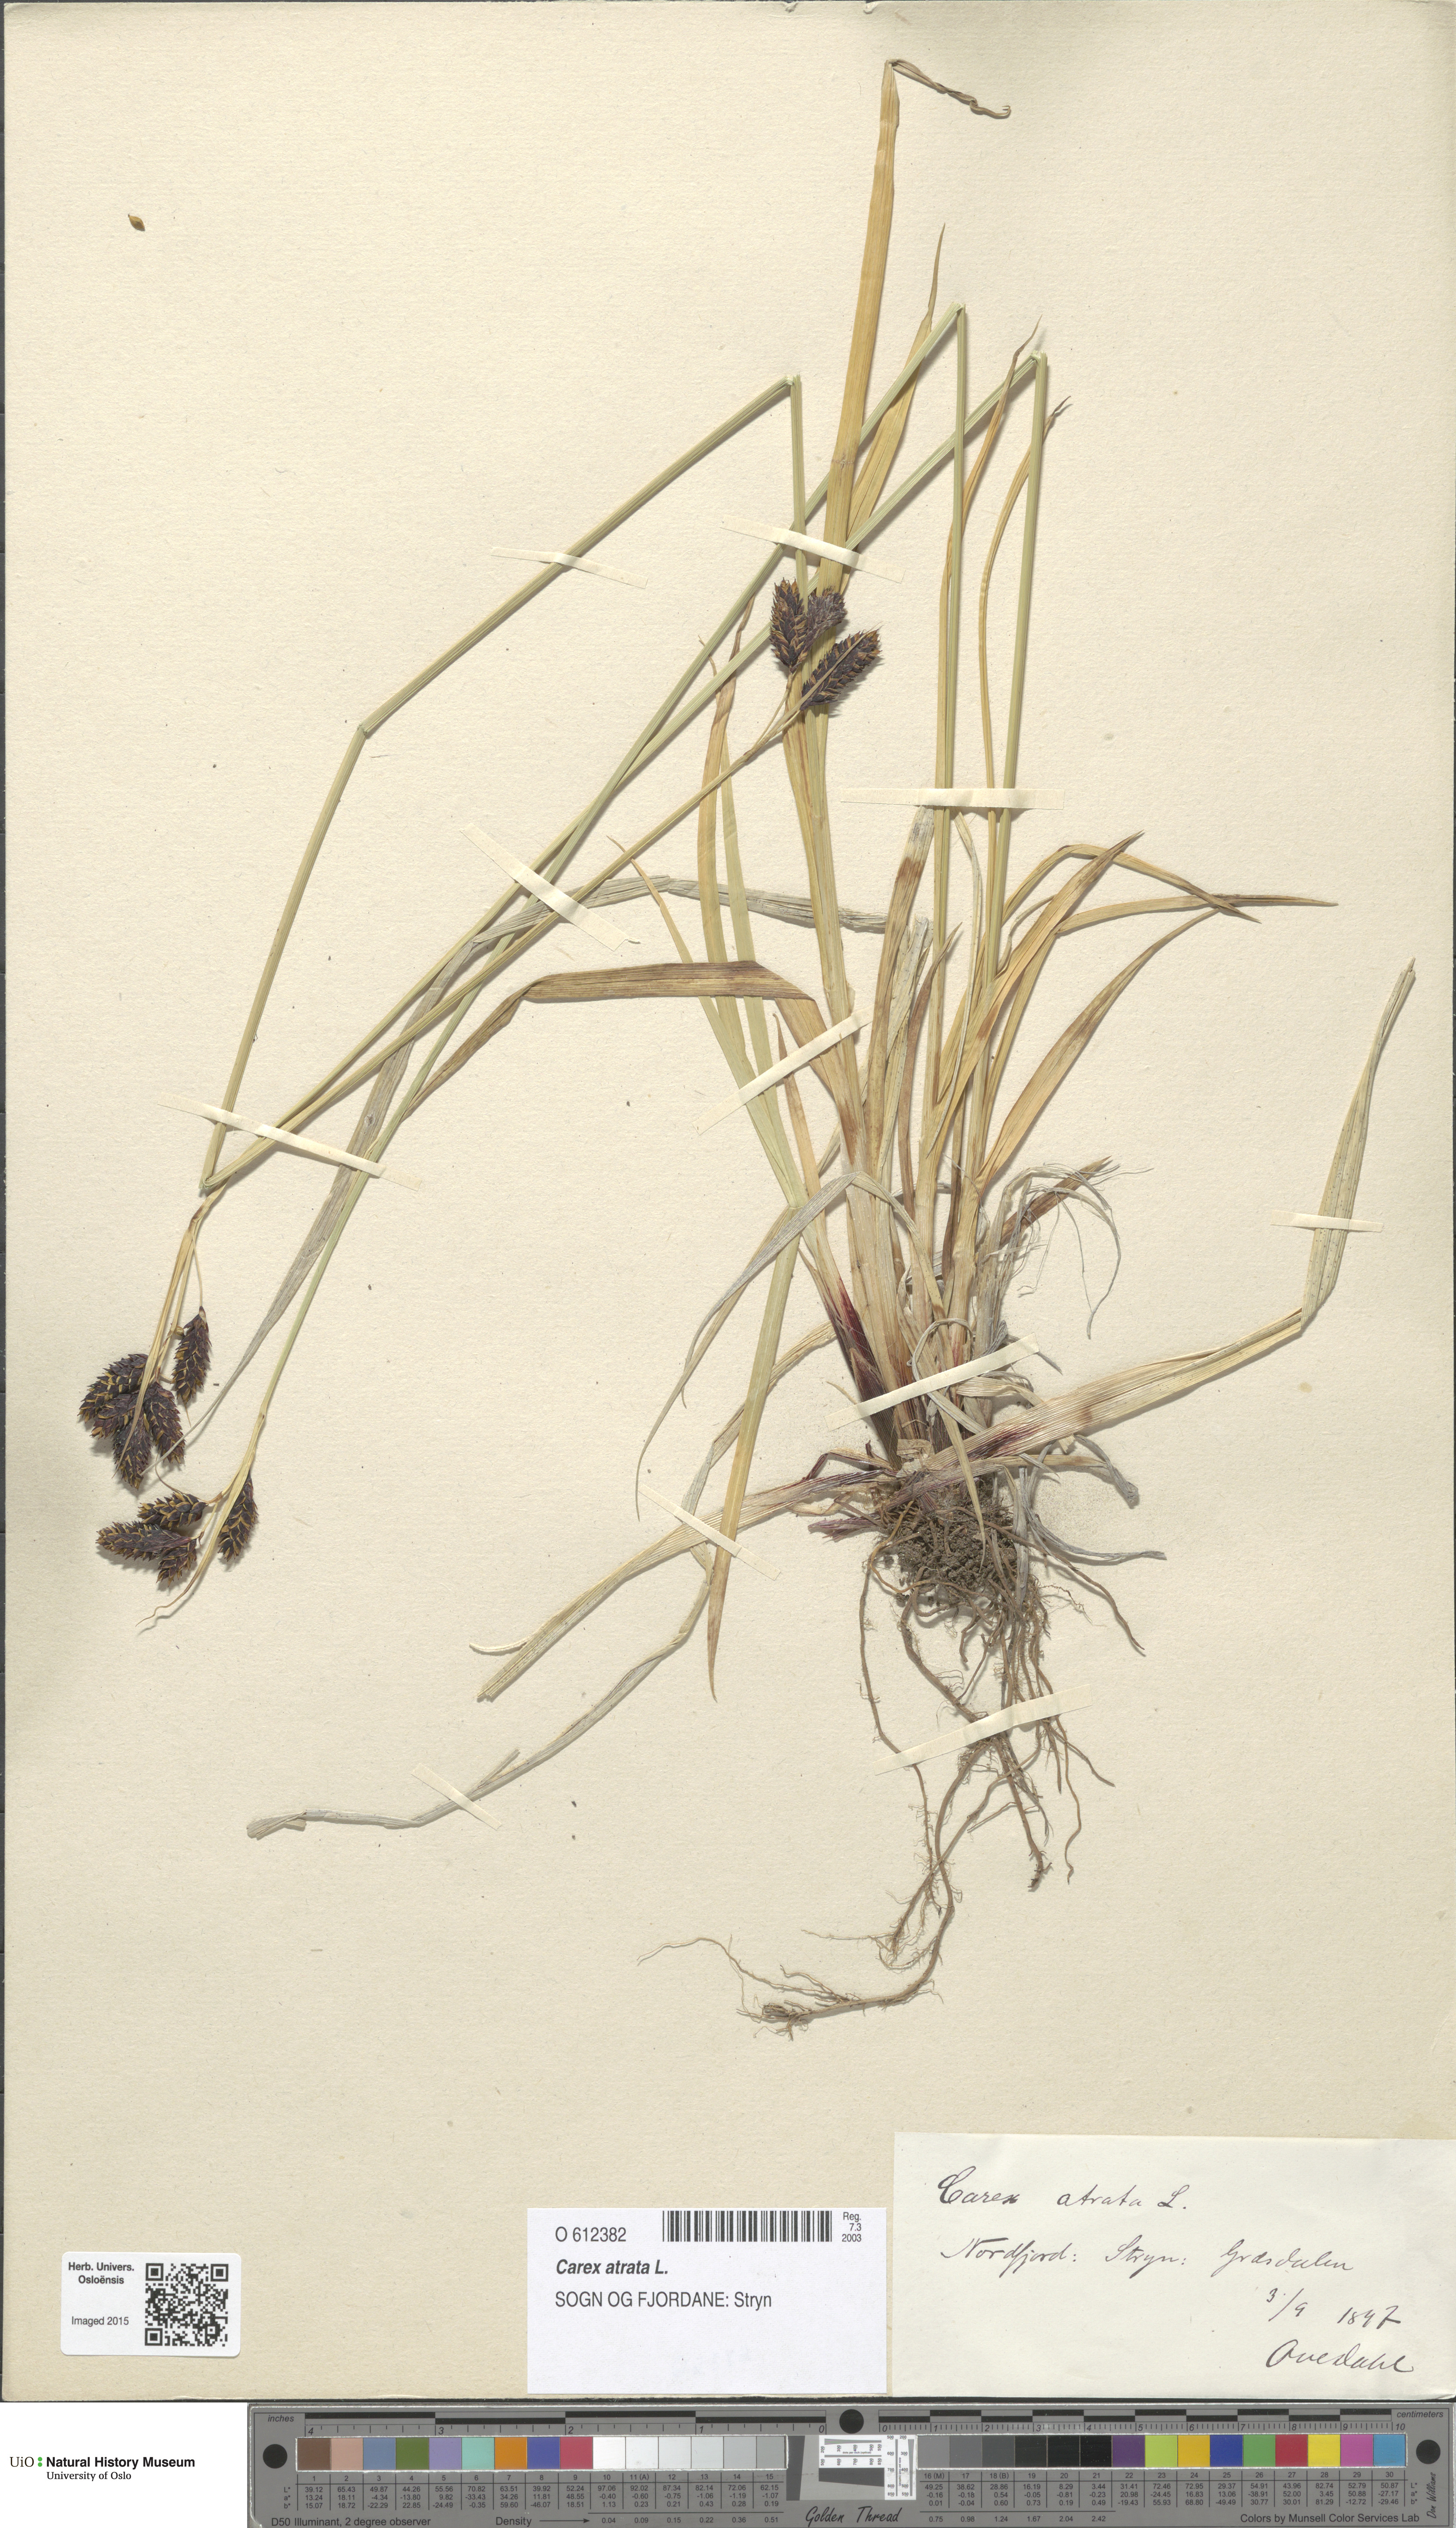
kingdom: Plantae
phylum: Tracheophyta
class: Liliopsida
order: Poales
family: Cyperaceae
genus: Carex
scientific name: Carex atrata
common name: Black alpine sedge
